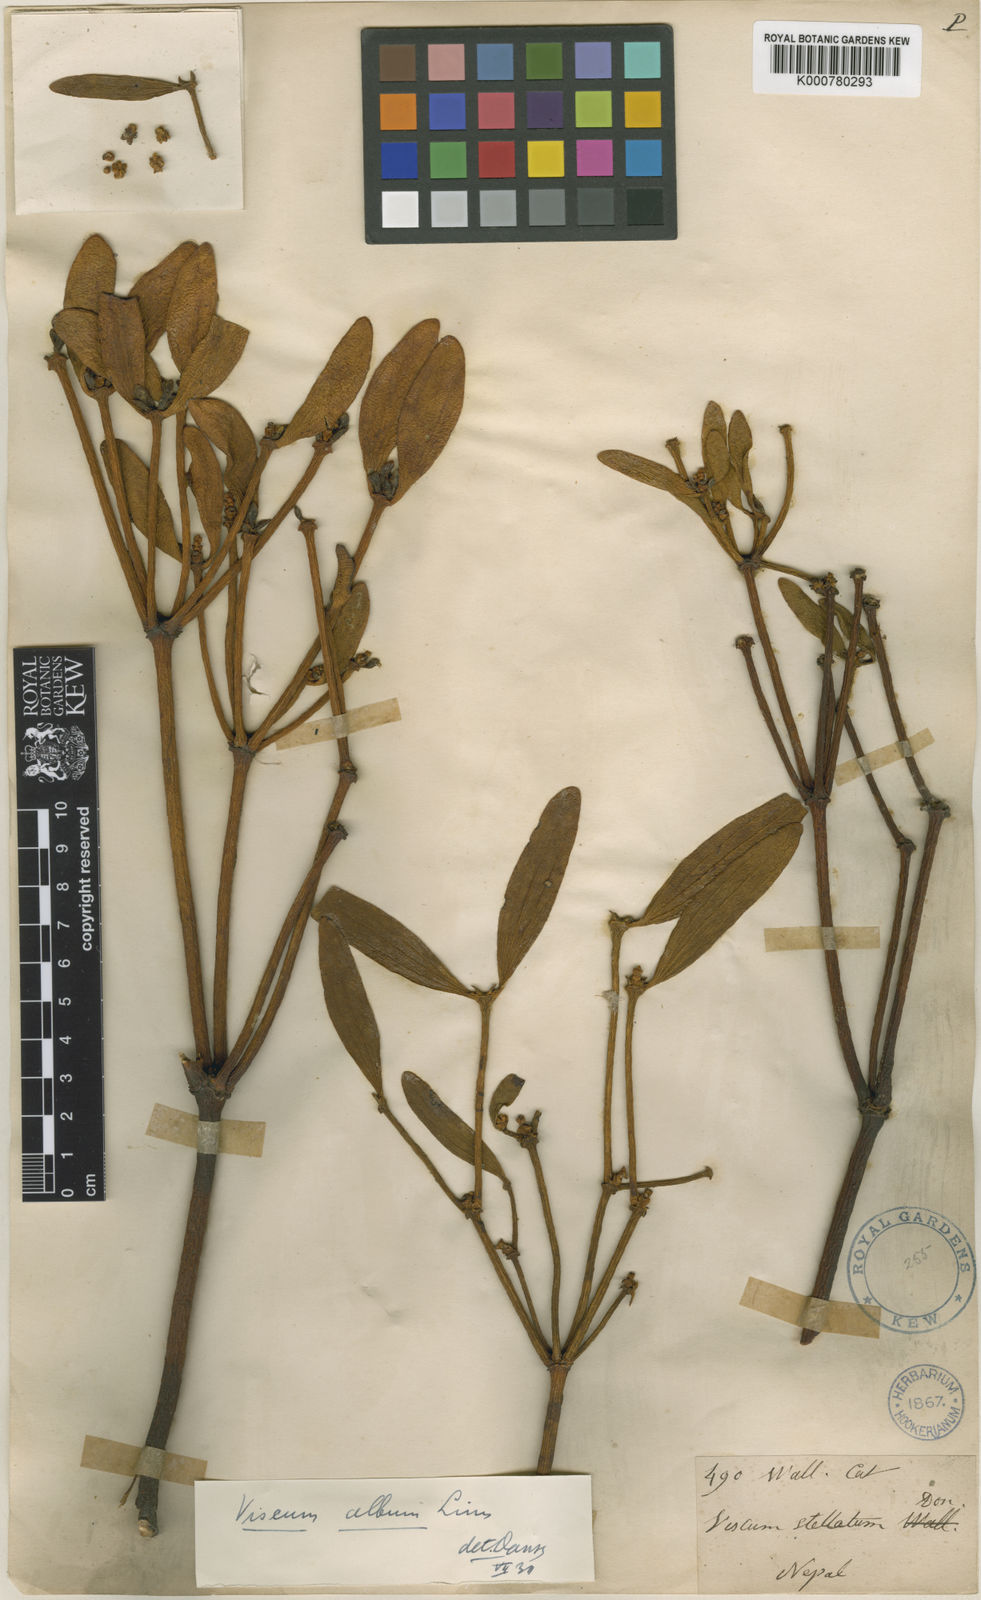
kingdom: Plantae
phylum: Tracheophyta
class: Magnoliopsida
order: Santalales
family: Viscaceae
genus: Viscum
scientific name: Viscum album
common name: Mistletoe
